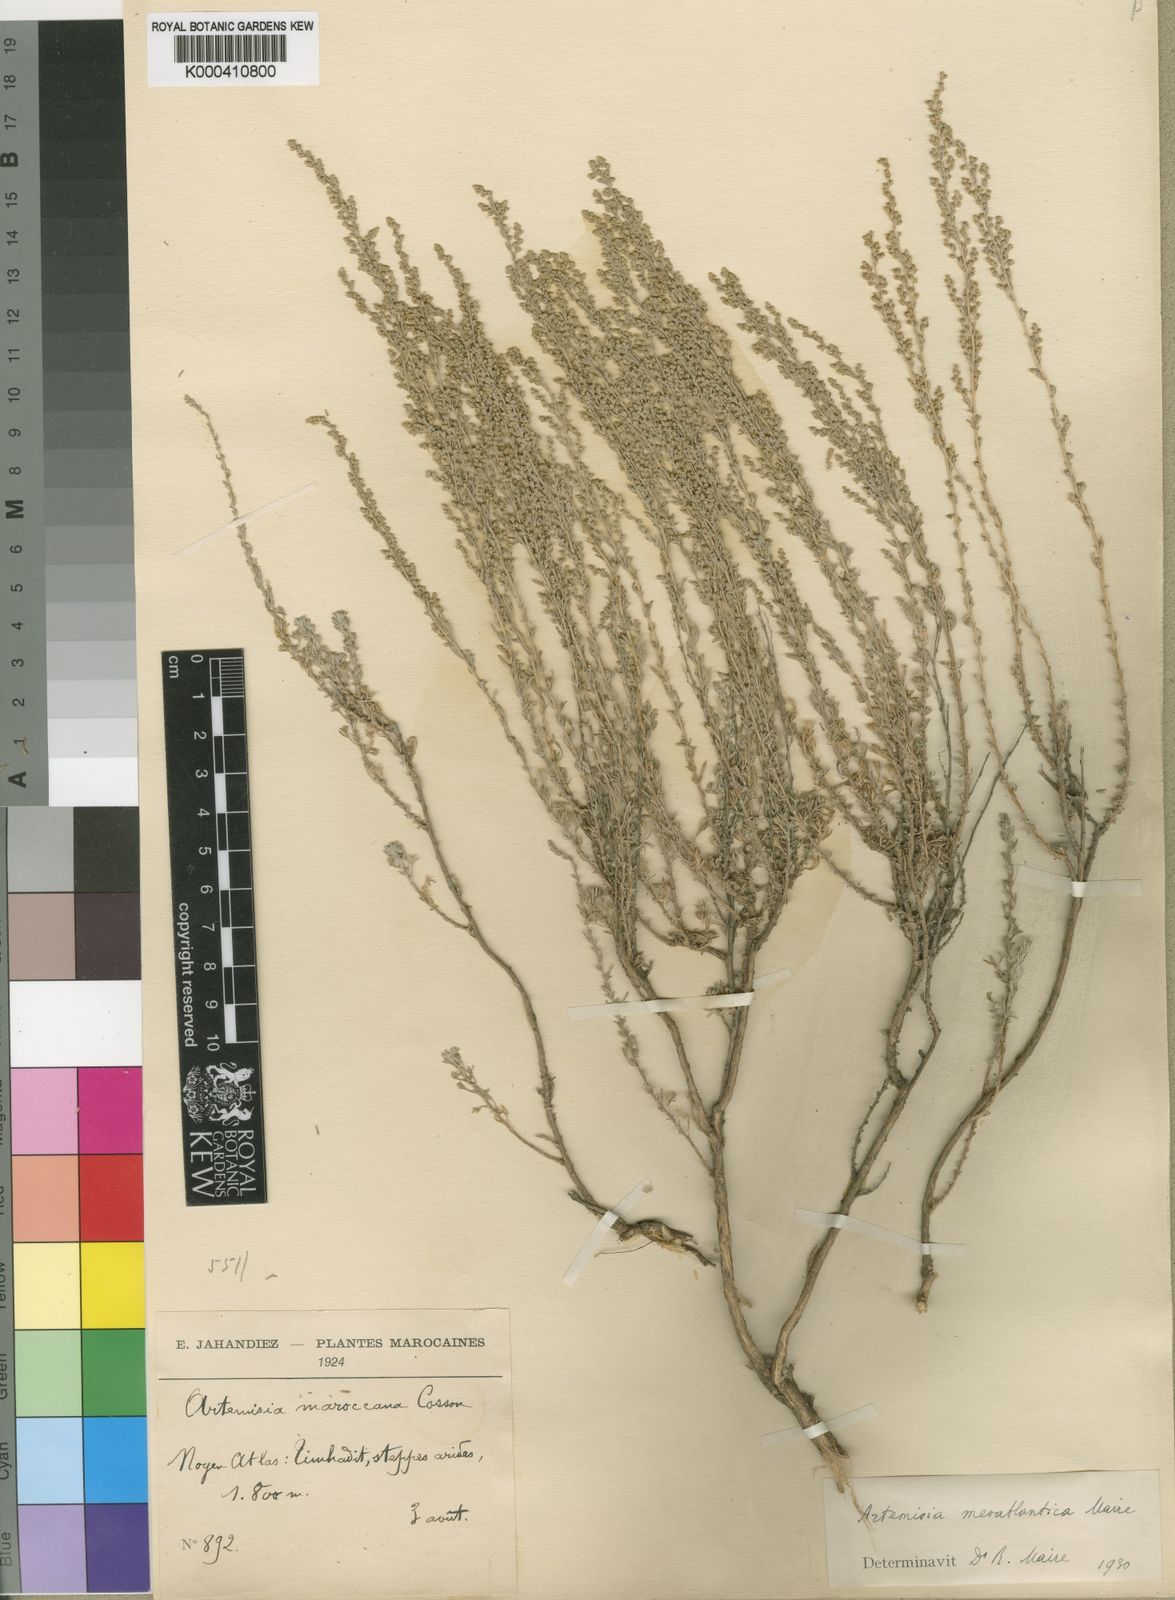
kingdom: Plantae
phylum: Tracheophyta
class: Magnoliopsida
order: Asterales
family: Asteraceae
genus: Artemisia
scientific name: Artemisia mesatlantica
